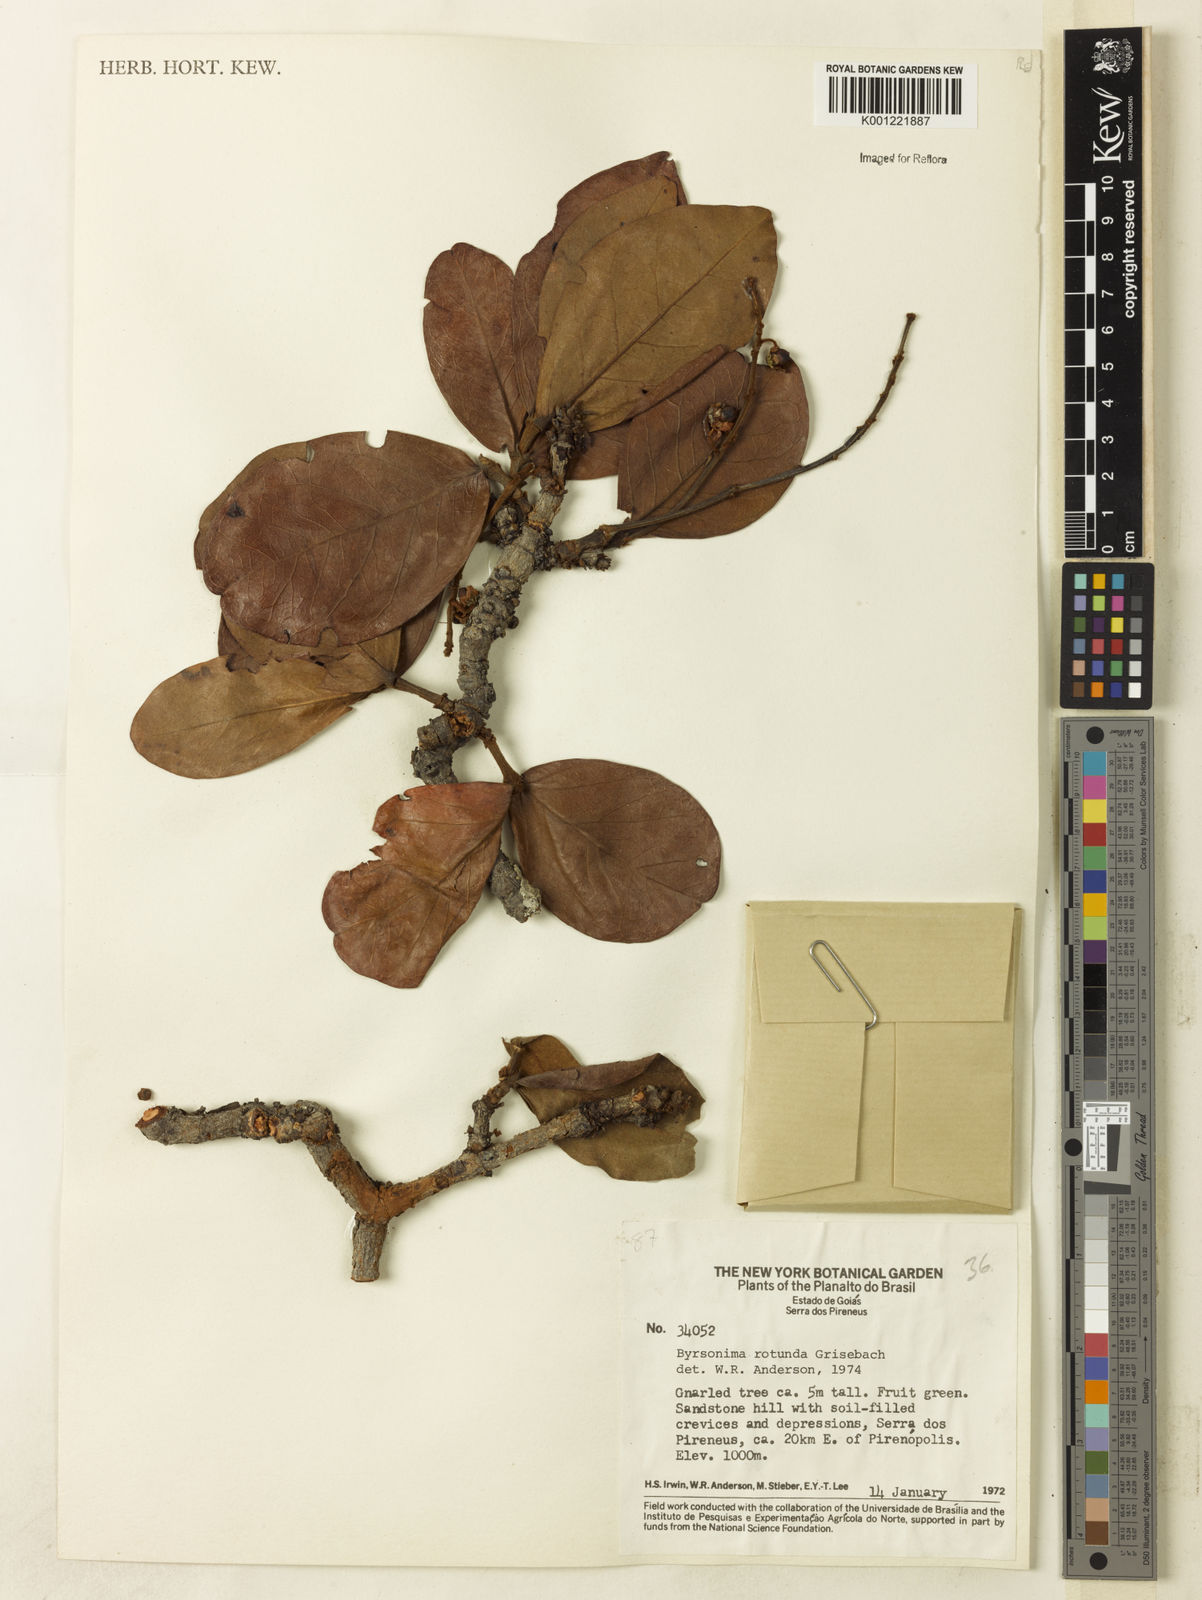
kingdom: Plantae
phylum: Tracheophyta
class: Magnoliopsida
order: Malpighiales
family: Malpighiaceae
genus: Byrsonima
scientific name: Byrsonima rotunda
